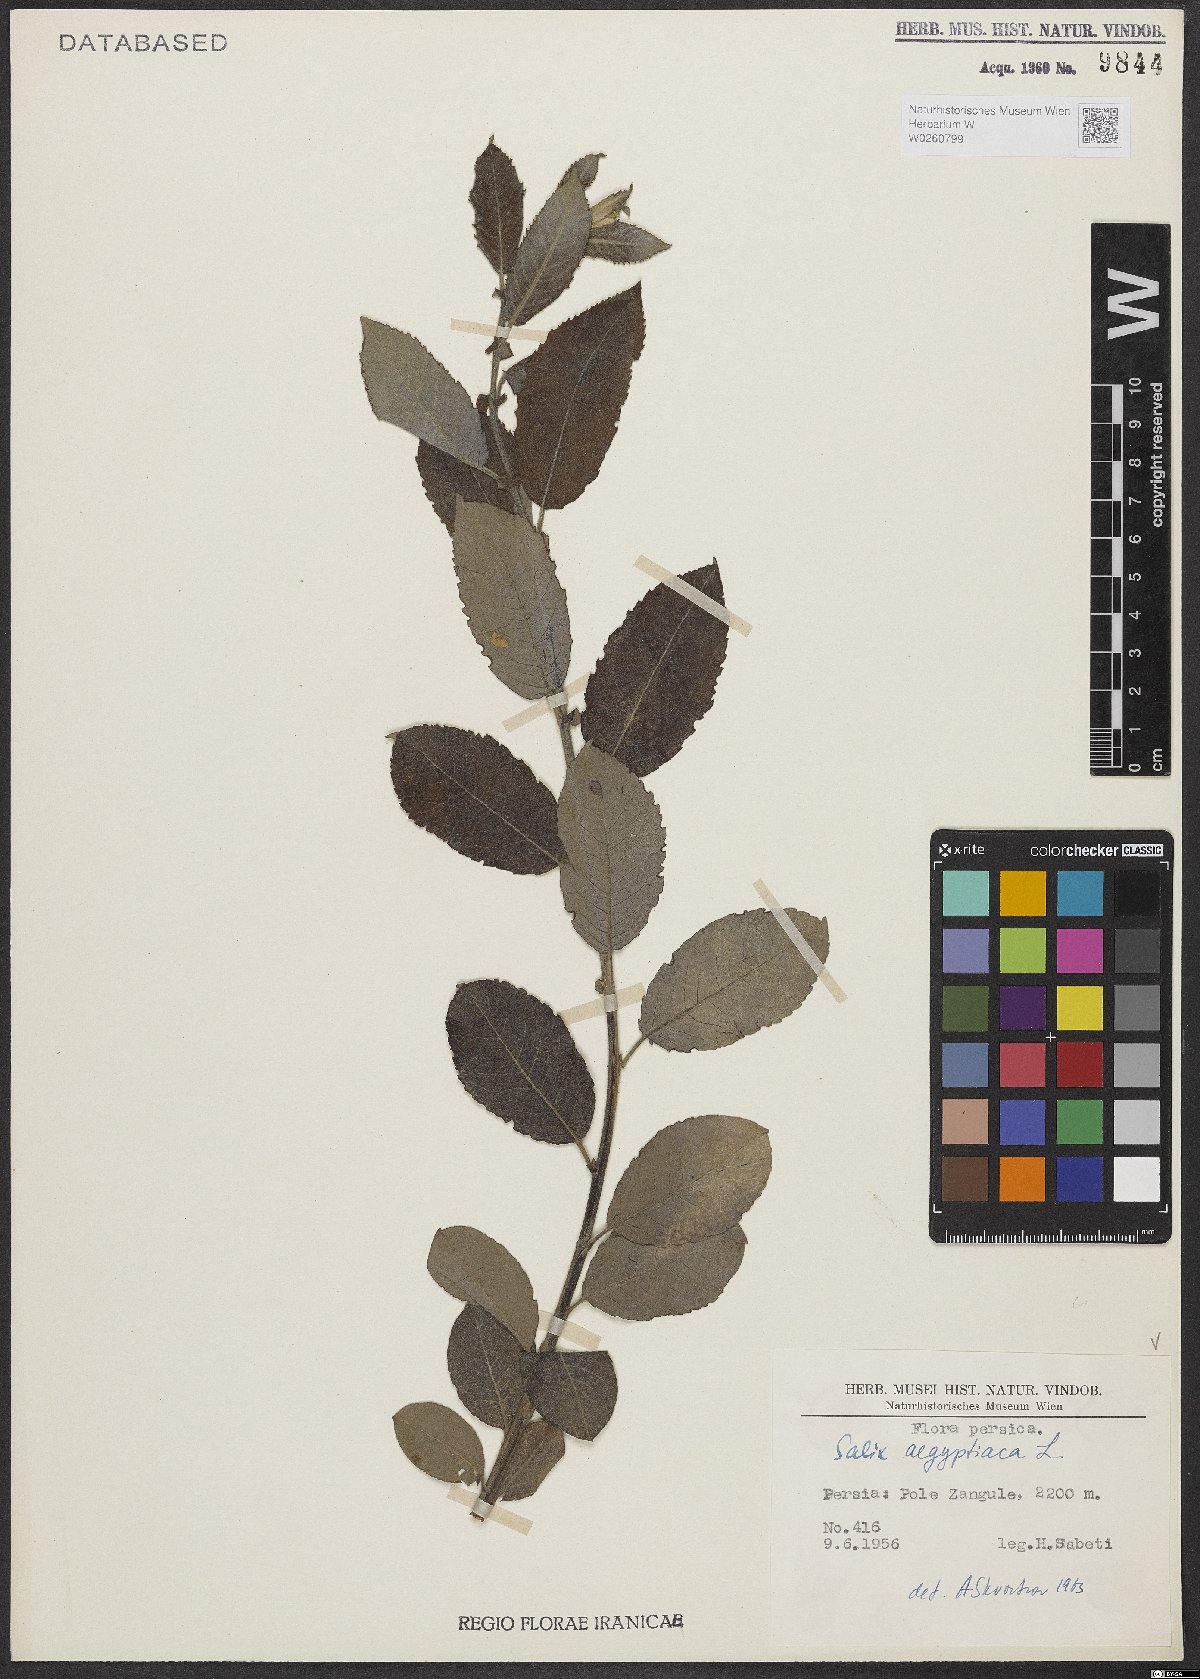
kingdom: Plantae
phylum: Tracheophyta
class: Magnoliopsida
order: Malpighiales
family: Salicaceae
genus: Salix
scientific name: Salix aegyptiaca
